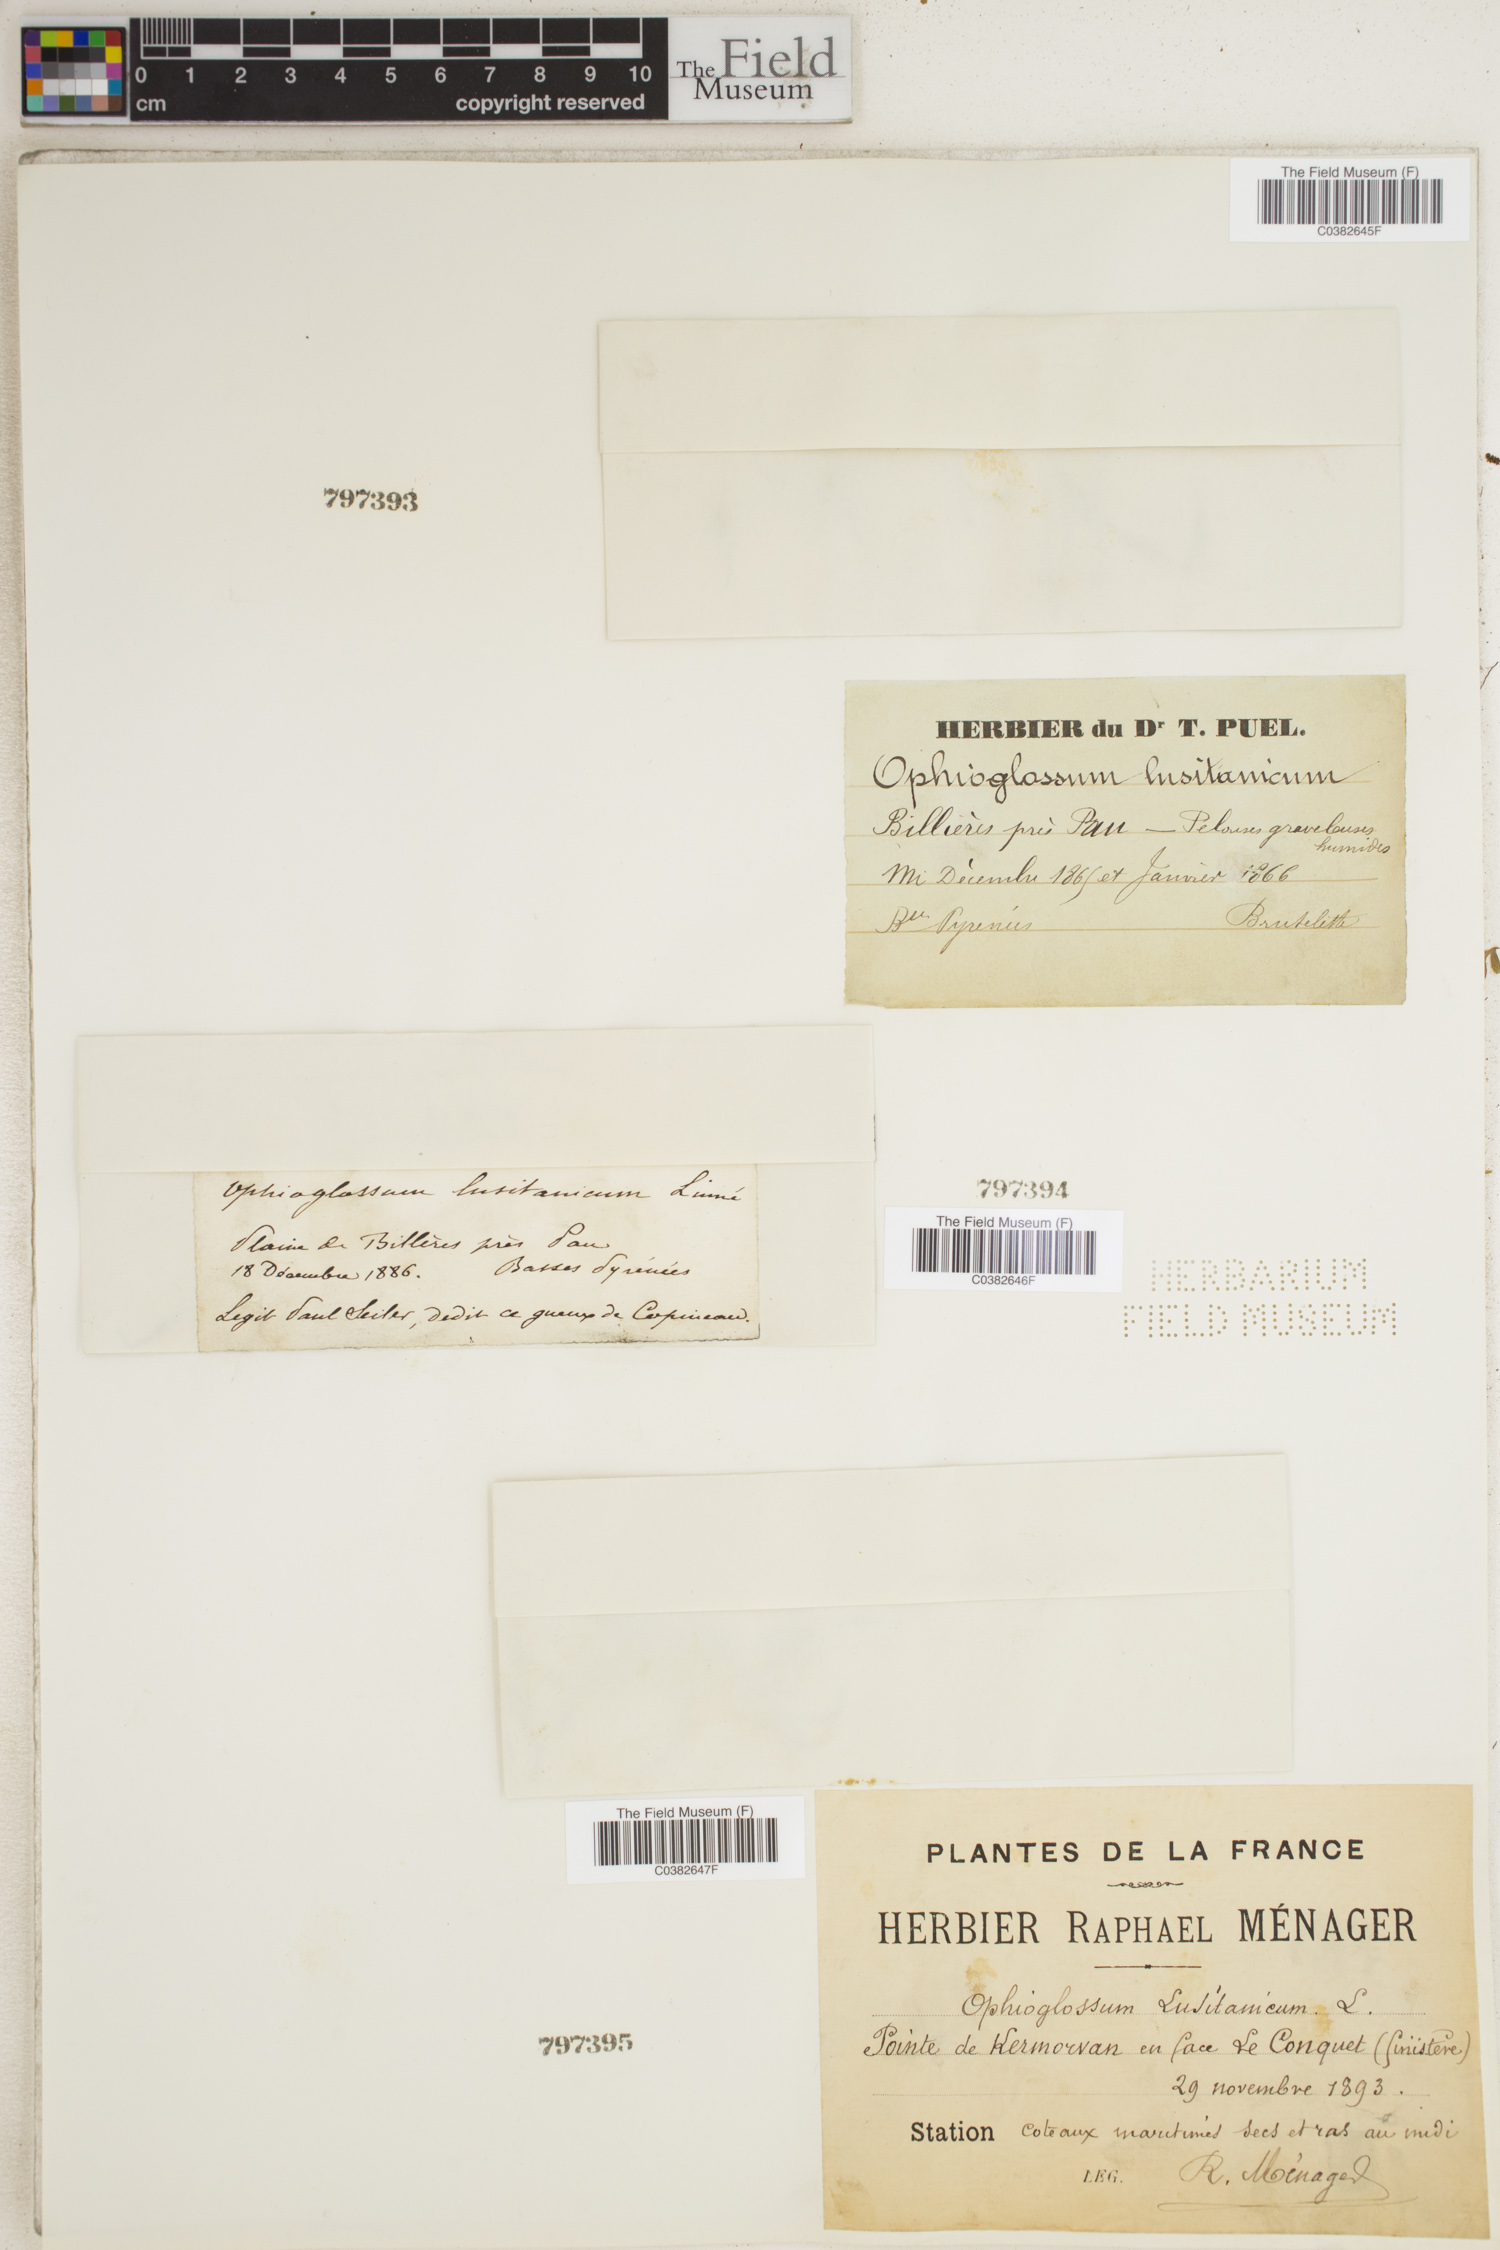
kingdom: Plantae
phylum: Tracheophyta
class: Polypodiopsida
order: Ophioglossales
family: Ophioglossaceae
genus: Ophioglossum
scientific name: Ophioglossum lusitanicum
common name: Least adder's-tongue
